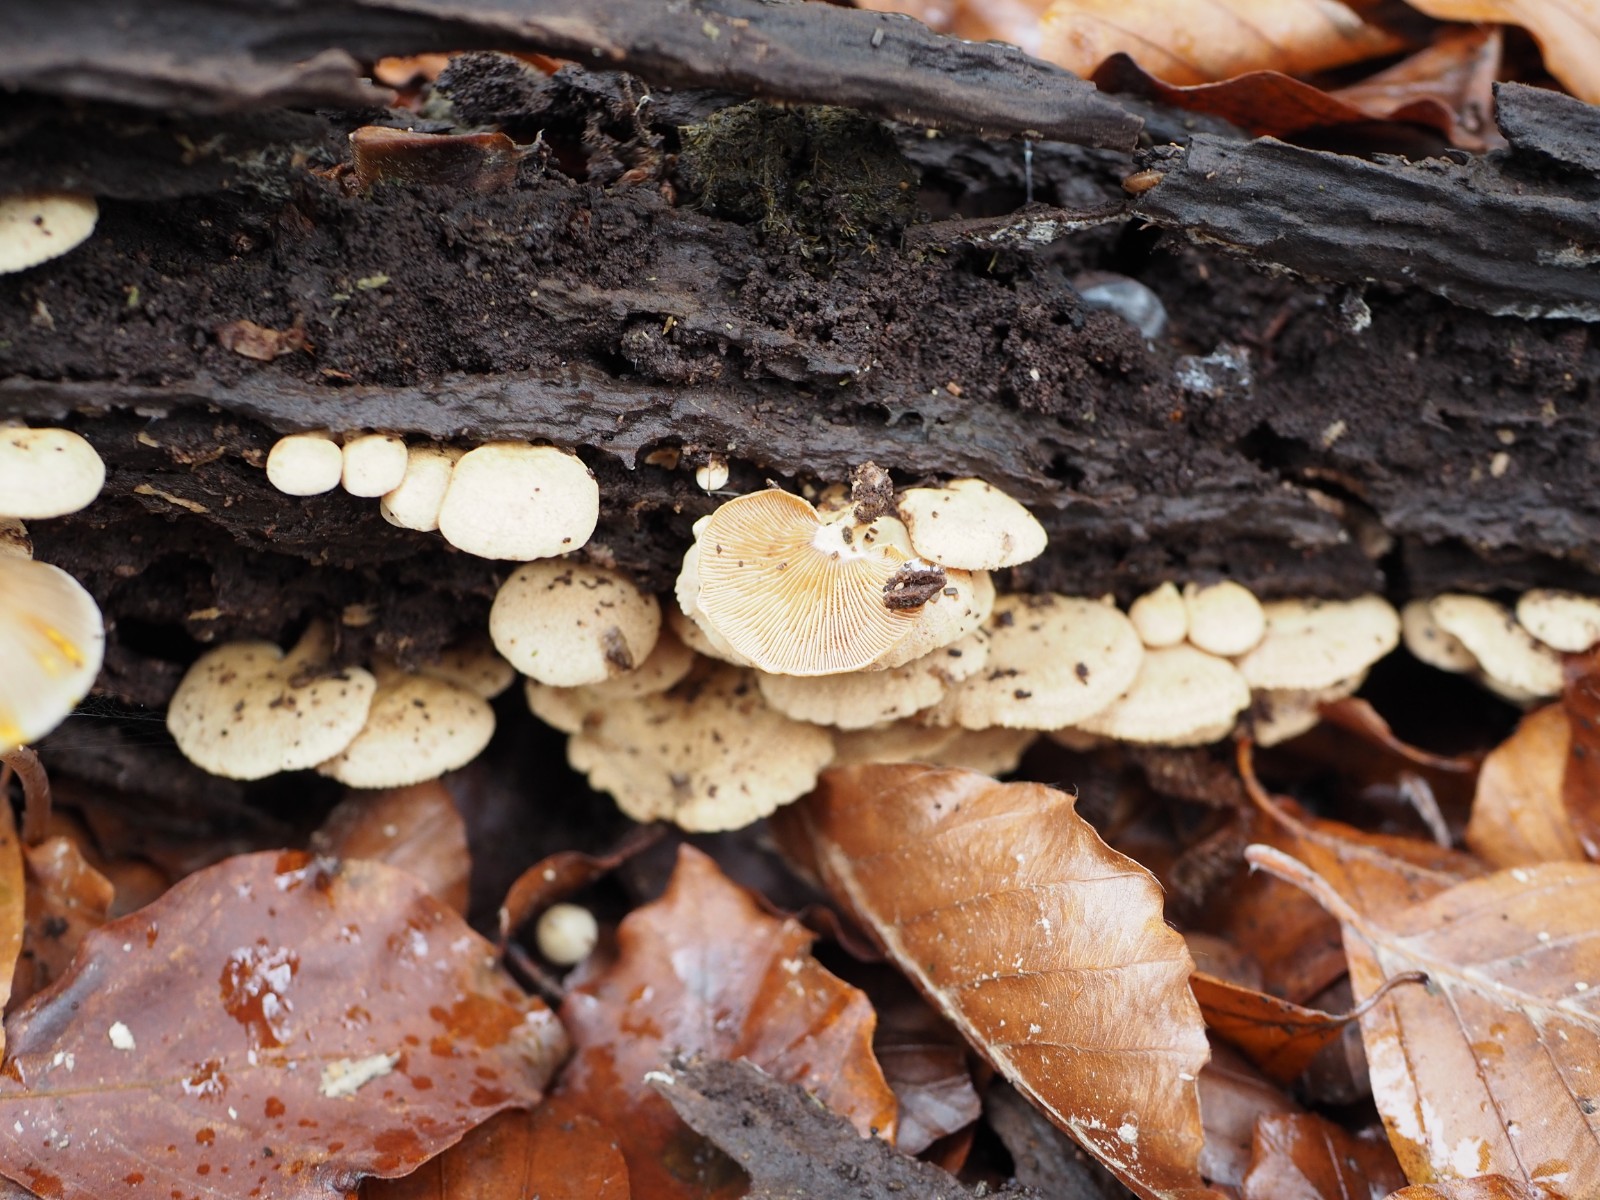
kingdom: Fungi
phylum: Basidiomycota
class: Agaricomycetes
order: Agaricales
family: Mycenaceae
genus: Panellus
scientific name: Panellus stipticus
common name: kliddet epaulethat
